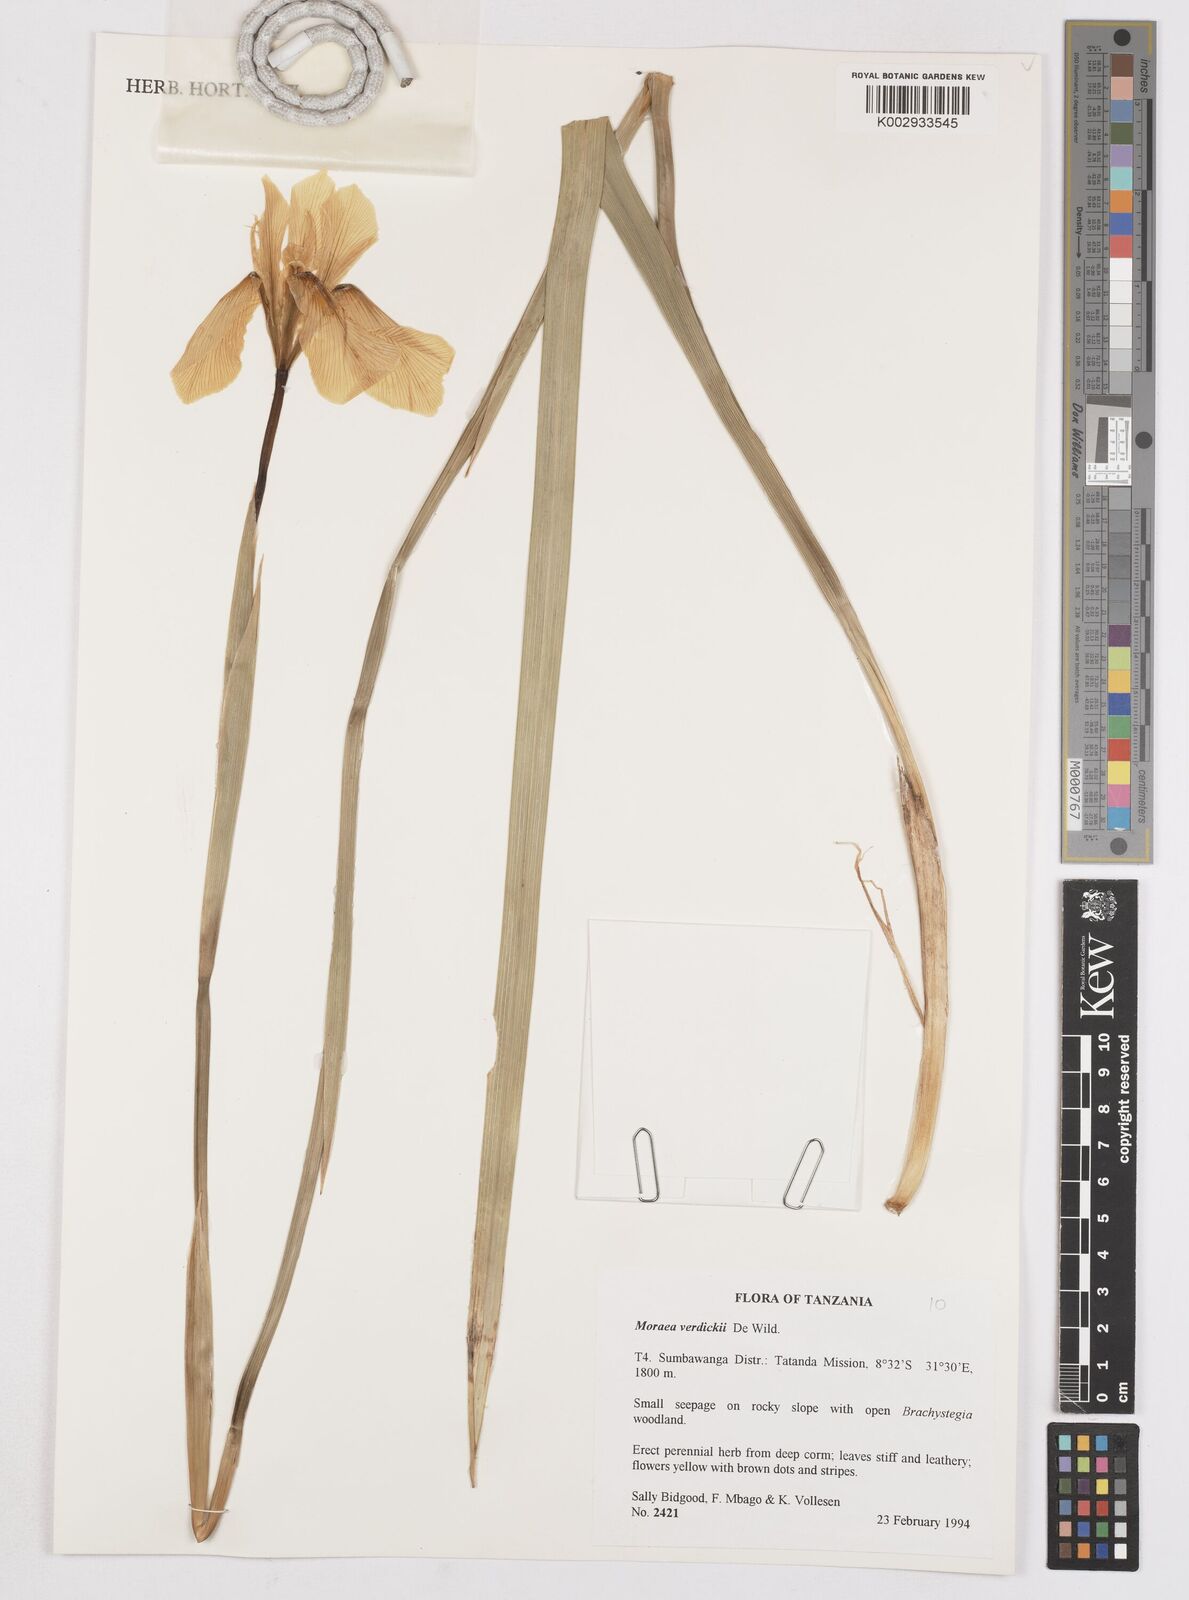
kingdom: Plantae
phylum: Tracheophyta
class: Liliopsida
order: Asparagales
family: Iridaceae
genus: Moraea
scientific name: Moraea verdickii
